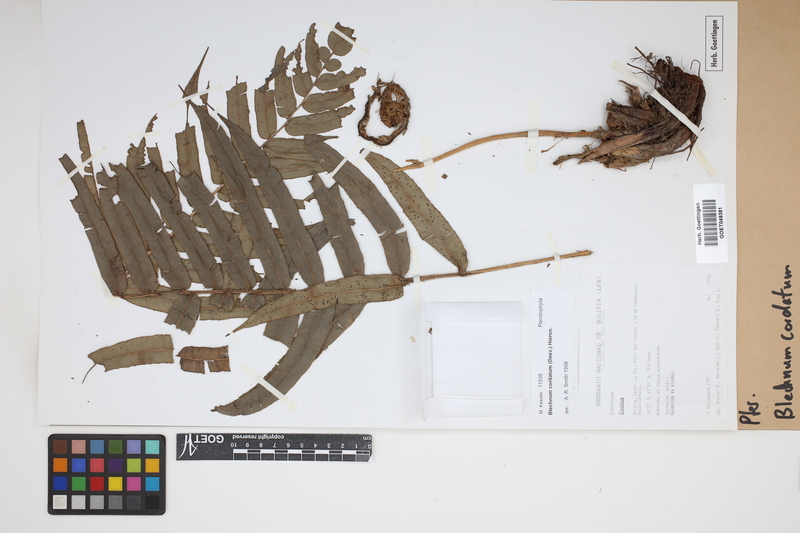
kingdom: Plantae
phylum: Tracheophyta
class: Polypodiopsida
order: Polypodiales
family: Blechnaceae
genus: Parablechnum
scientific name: Parablechnum cordatum
